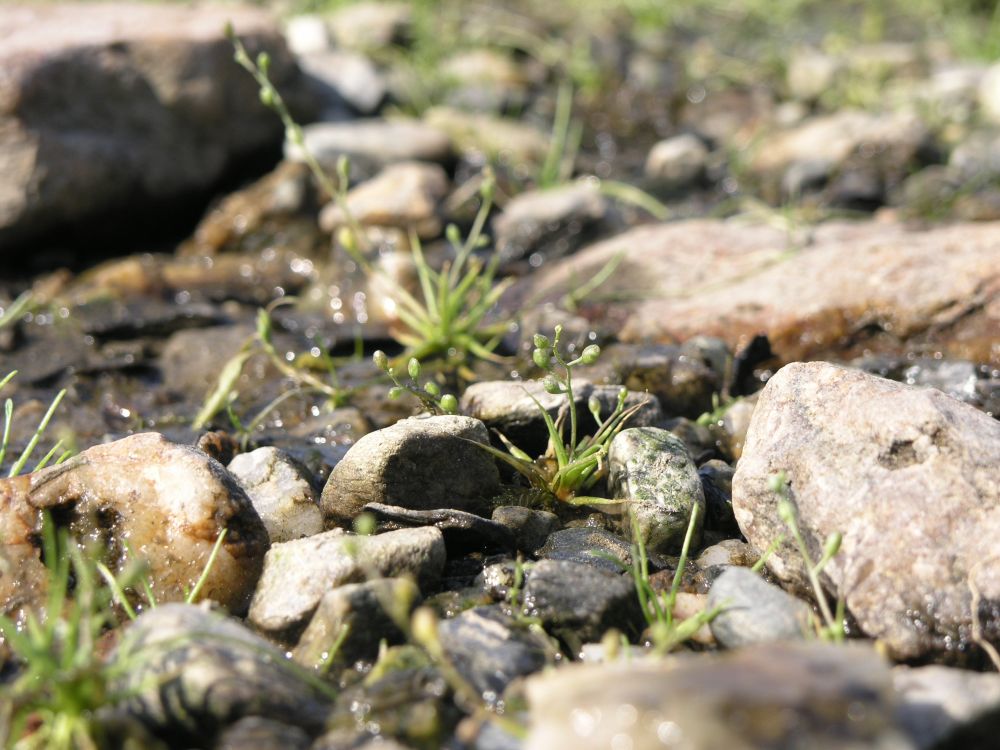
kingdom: Plantae
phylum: Tracheophyta
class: Magnoliopsida
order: Lamiales
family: Scrophulariaceae
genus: Limosella
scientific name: Limosella aquatica
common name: Mudwort
